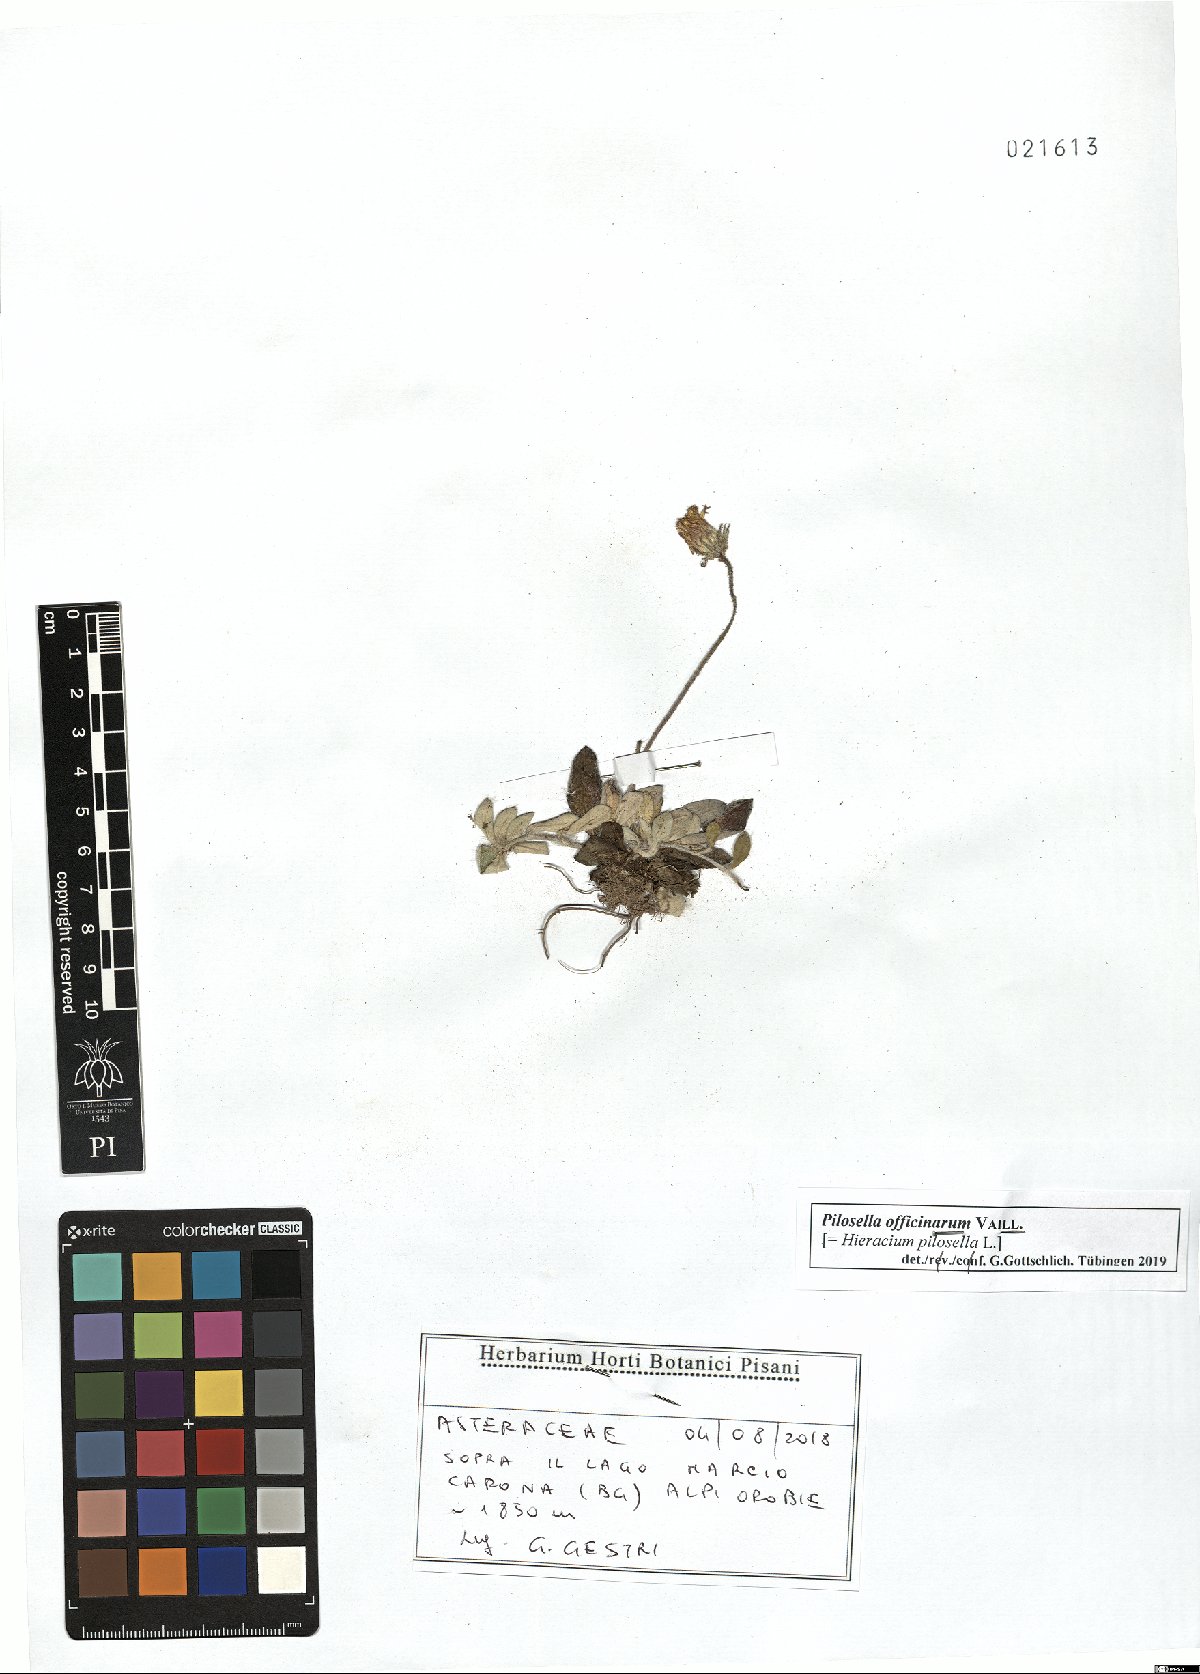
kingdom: Plantae
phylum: Tracheophyta
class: Magnoliopsida
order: Asterales
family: Asteraceae
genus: Pilosella
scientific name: Pilosella officinarum
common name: Mouse-ear hawkweed
